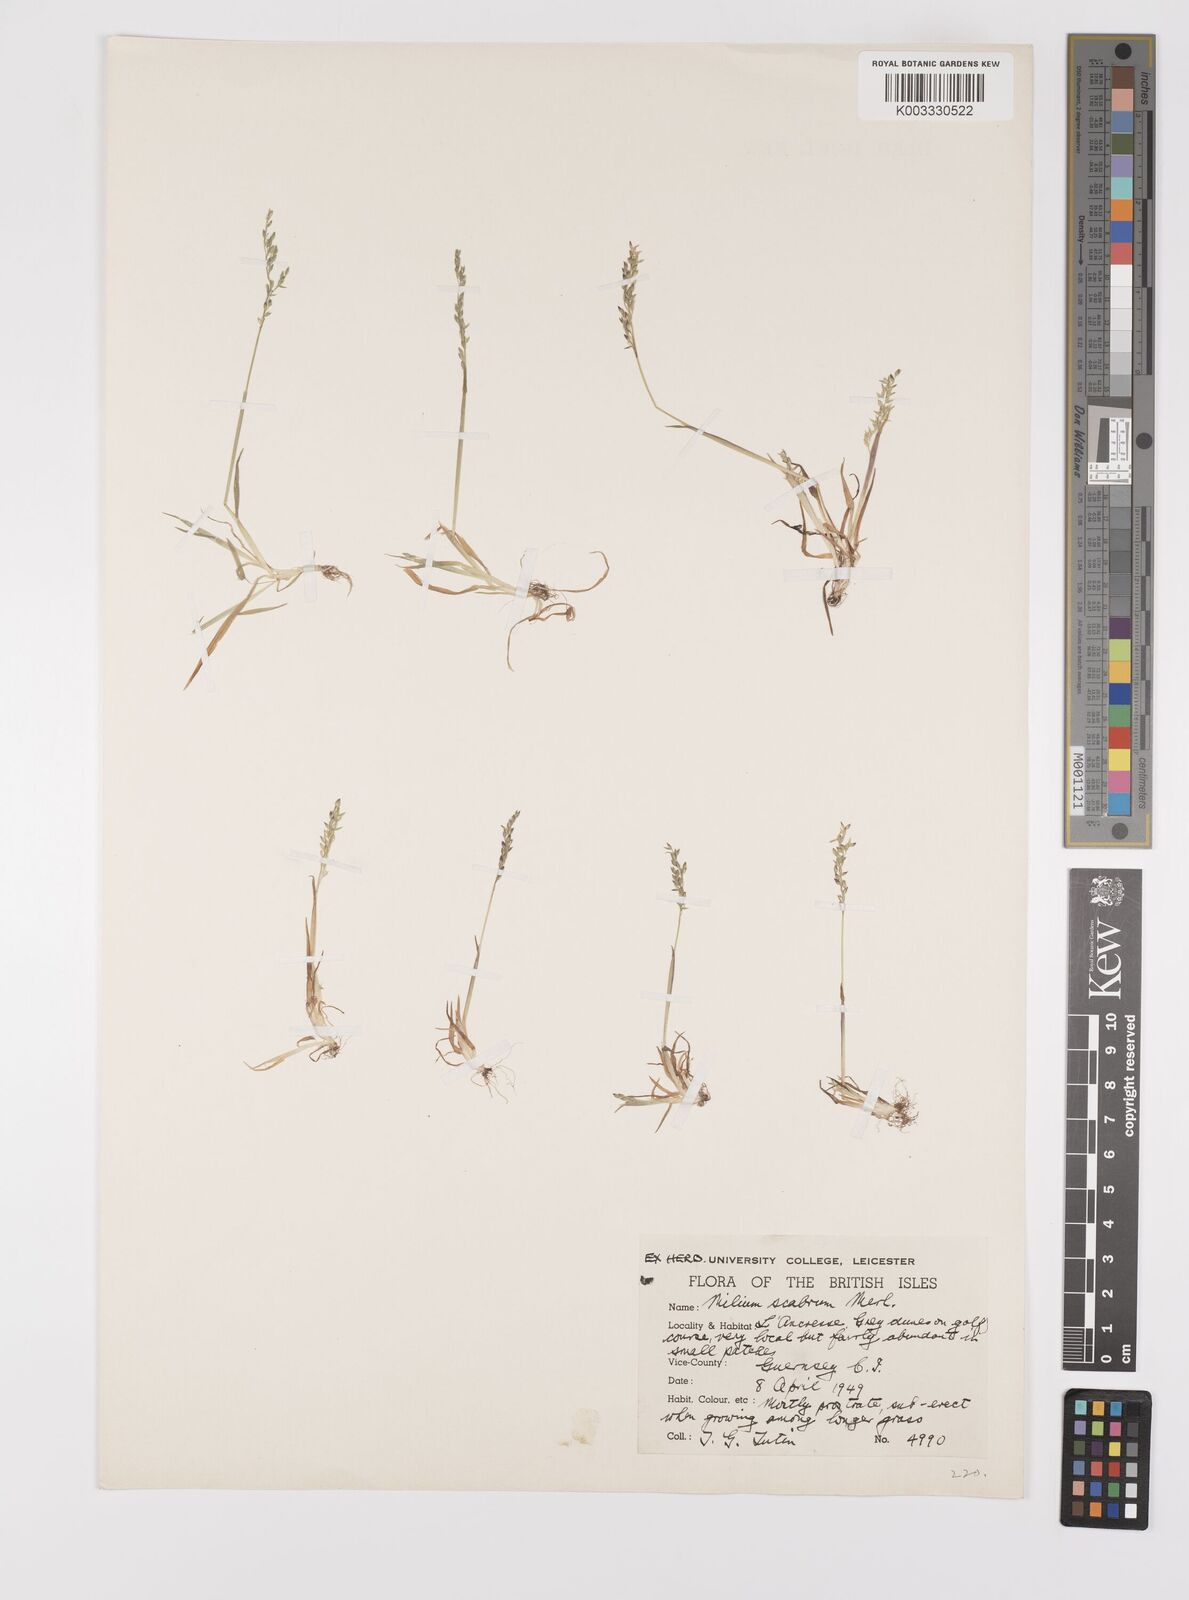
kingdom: Plantae
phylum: Tracheophyta
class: Liliopsida
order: Poales
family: Poaceae
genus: Milium
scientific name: Milium vernale
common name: Early millet
